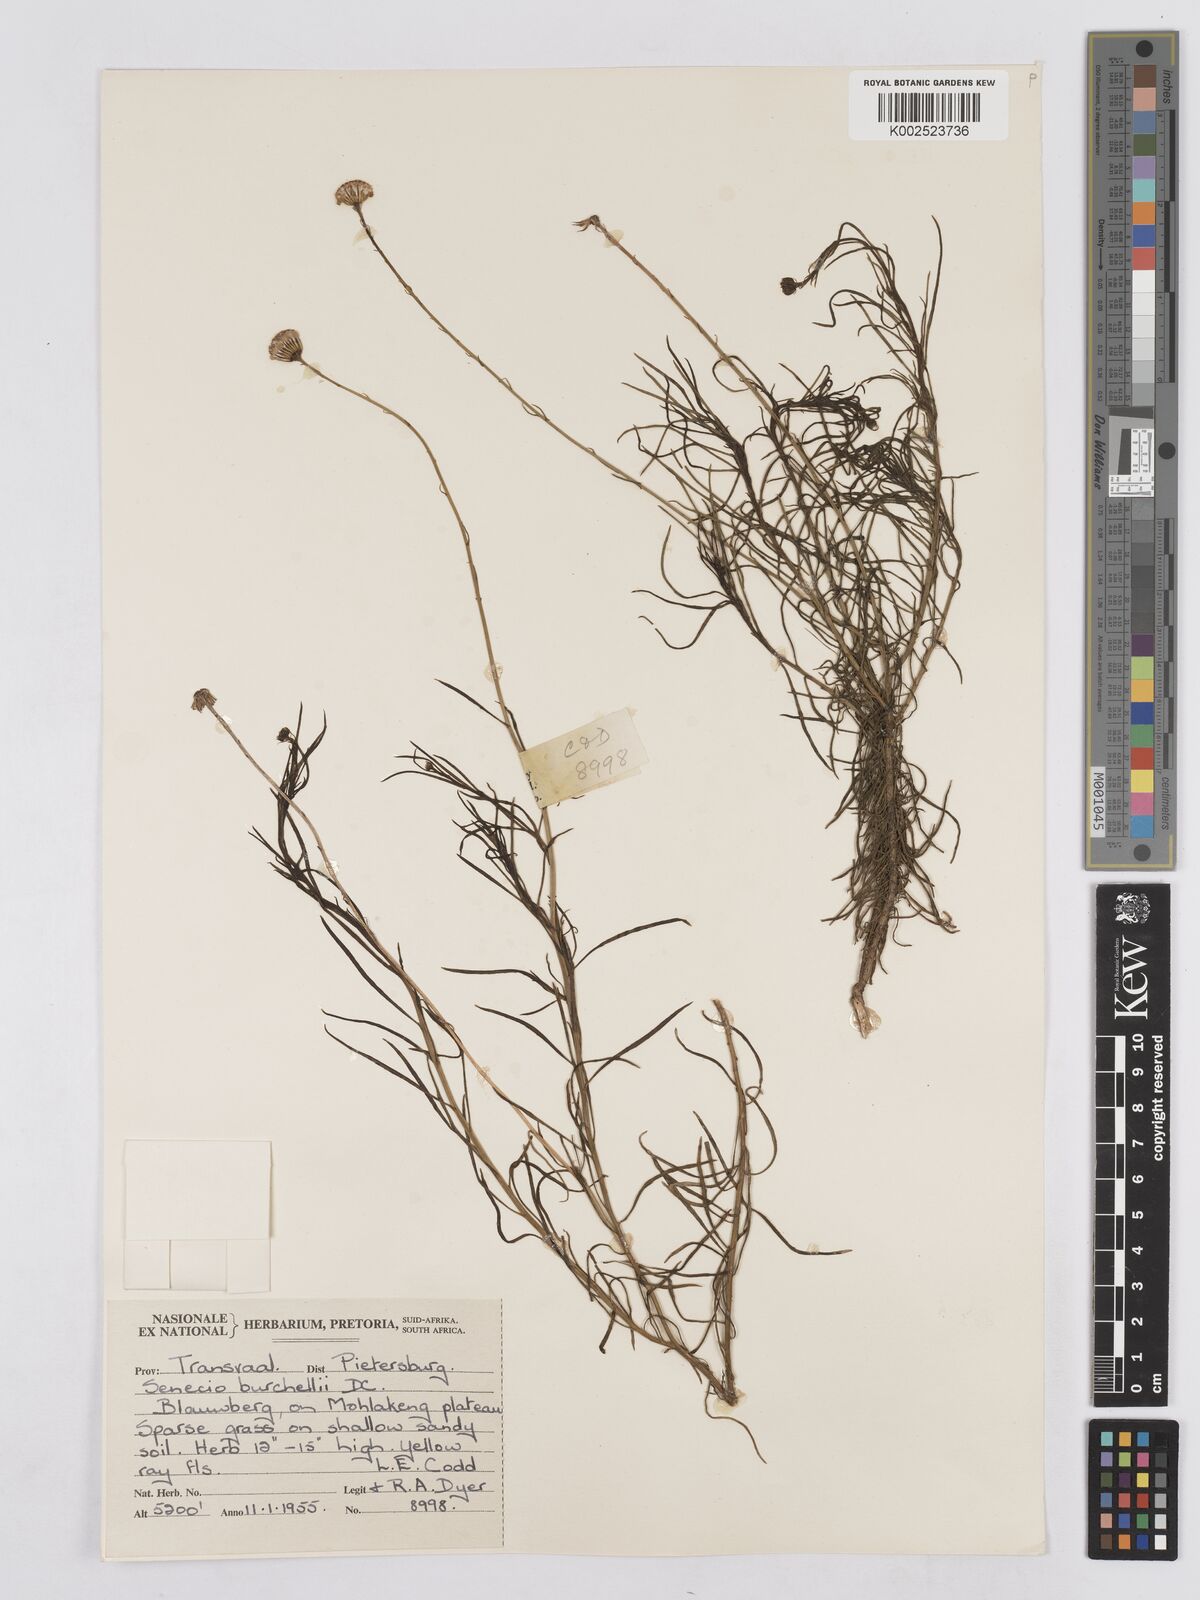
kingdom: Plantae
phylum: Tracheophyta
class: Magnoliopsida
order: Asterales
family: Asteraceae
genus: Senecio
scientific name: Senecio burchellii
